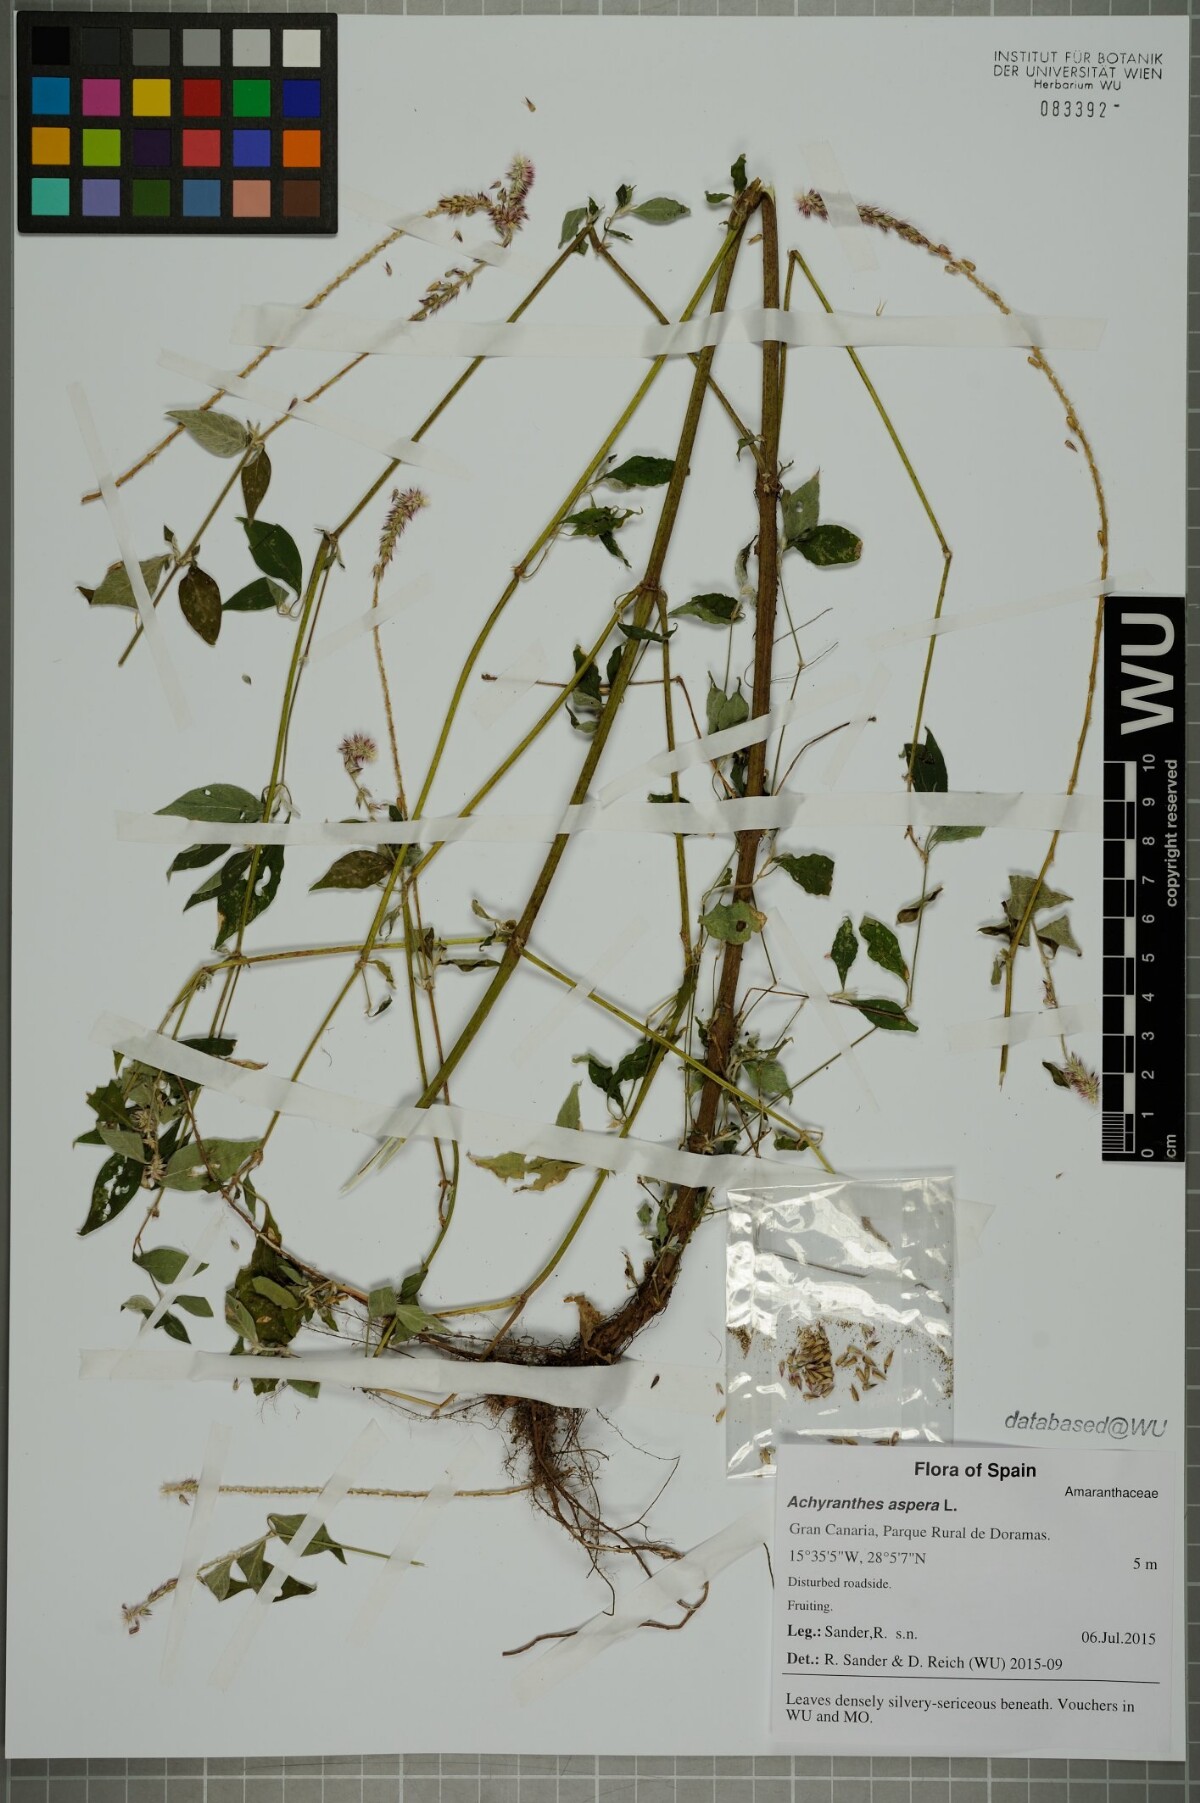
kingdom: Plantae
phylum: Tracheophyta
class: Magnoliopsida
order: Caryophyllales
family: Amaranthaceae
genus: Achyranthes
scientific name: Achyranthes aspera
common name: Devil's horsewhip
